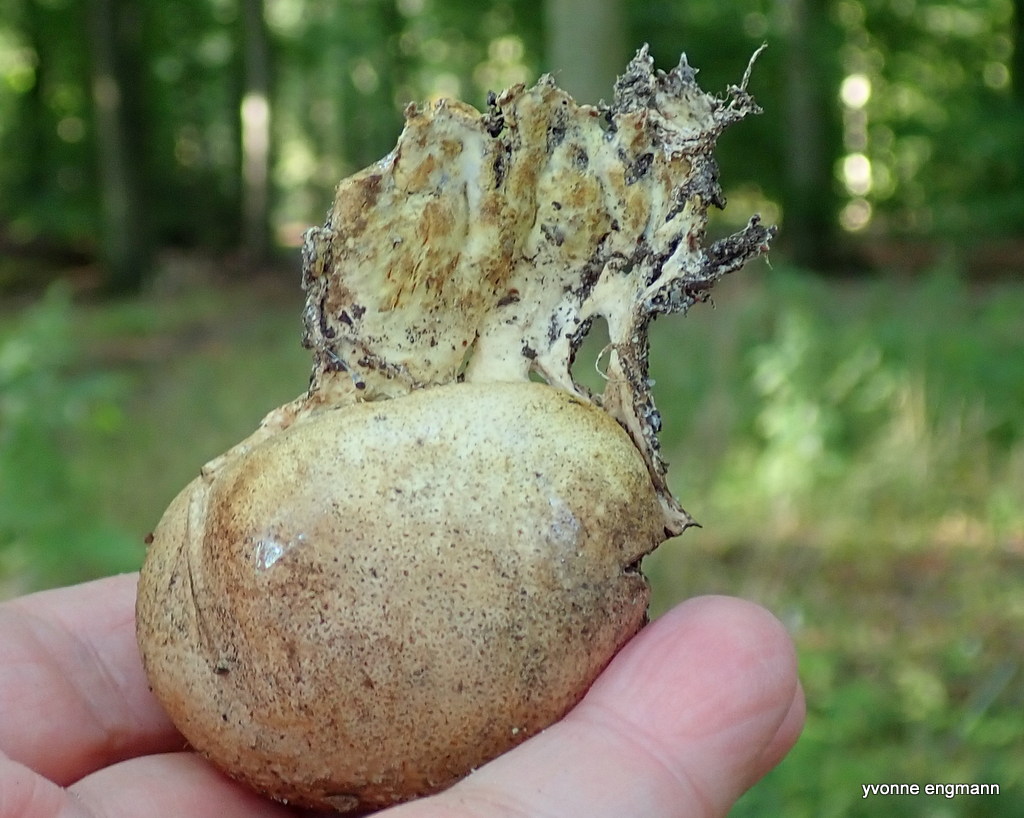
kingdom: Fungi
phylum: Basidiomycota
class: Agaricomycetes
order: Boletales
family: Sclerodermataceae
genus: Scleroderma
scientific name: Scleroderma verrucosum
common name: stilket bruskbold
